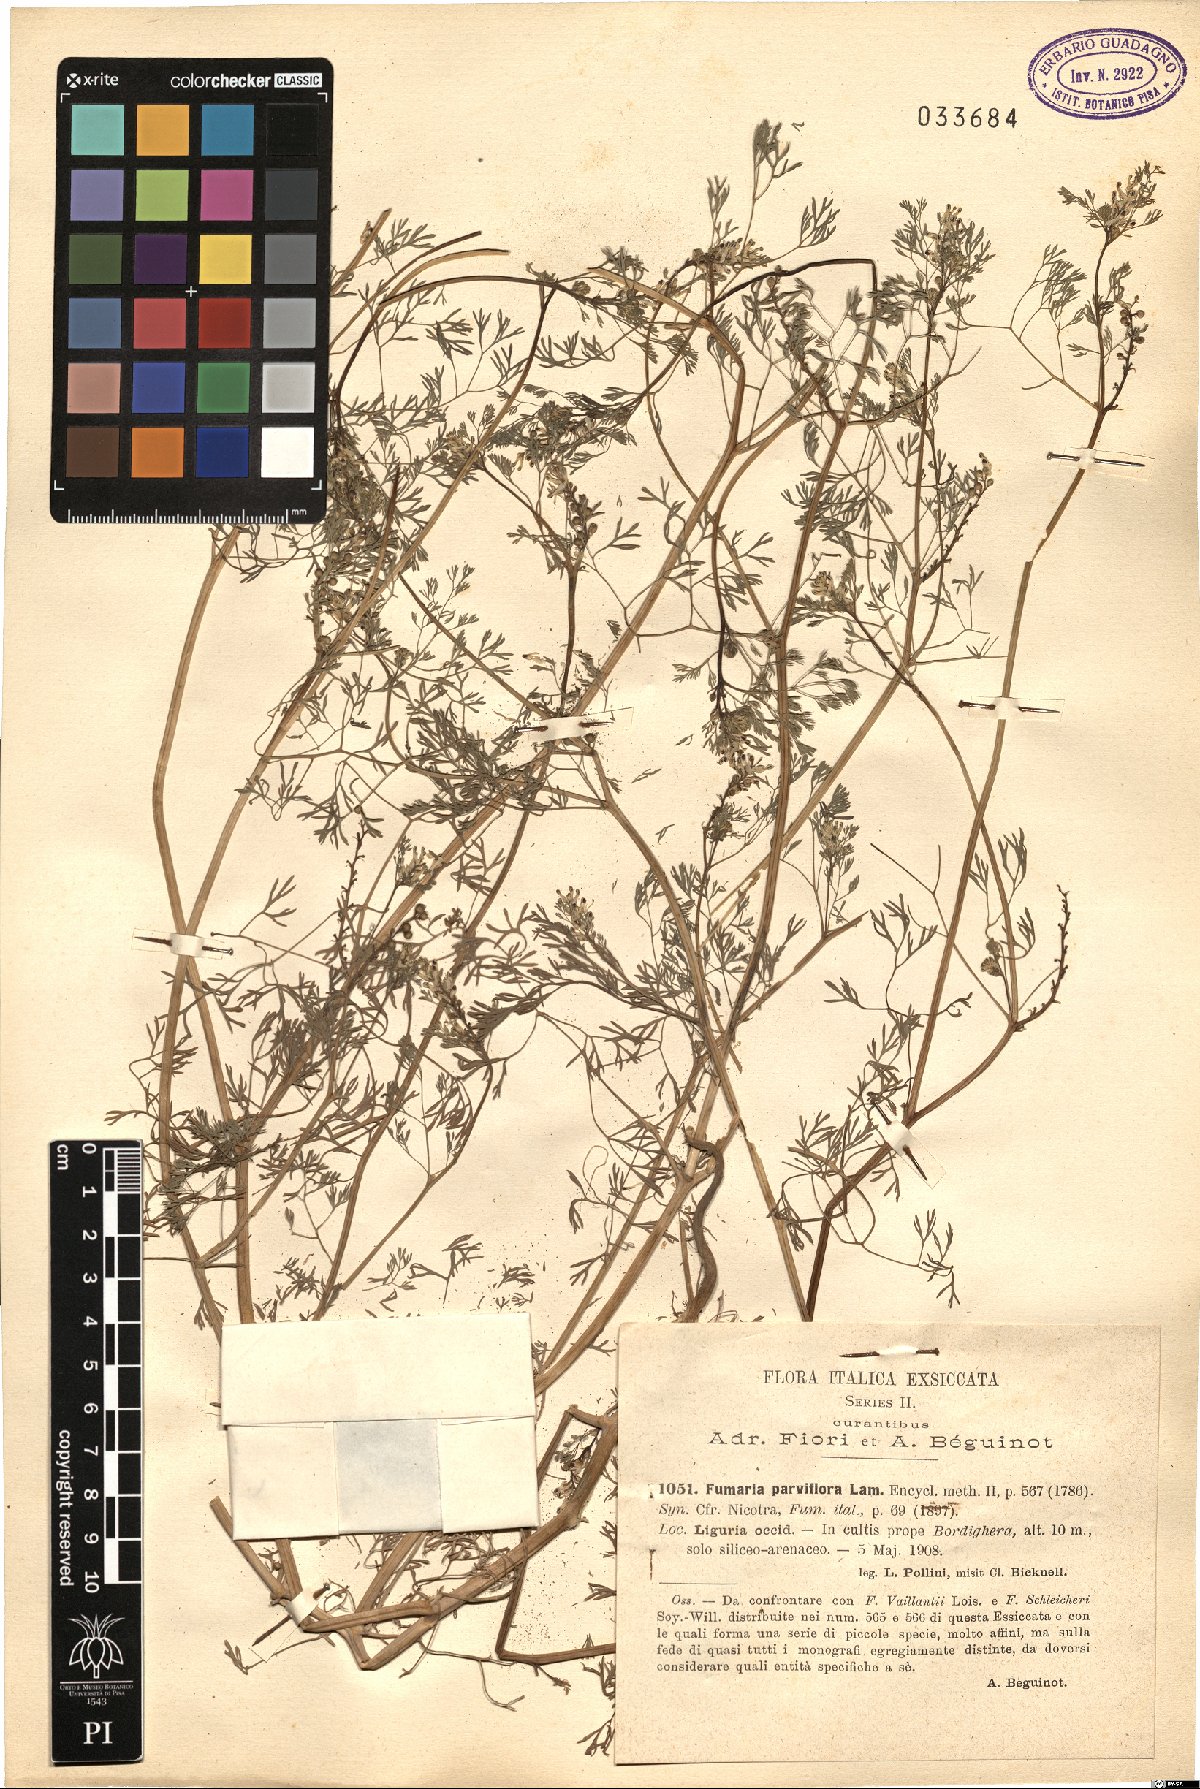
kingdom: Plantae
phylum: Tracheophyta
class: Magnoliopsida
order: Ranunculales
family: Papaveraceae
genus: Fumaria
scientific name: Fumaria parviflora
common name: Fine-leaved fumitory
